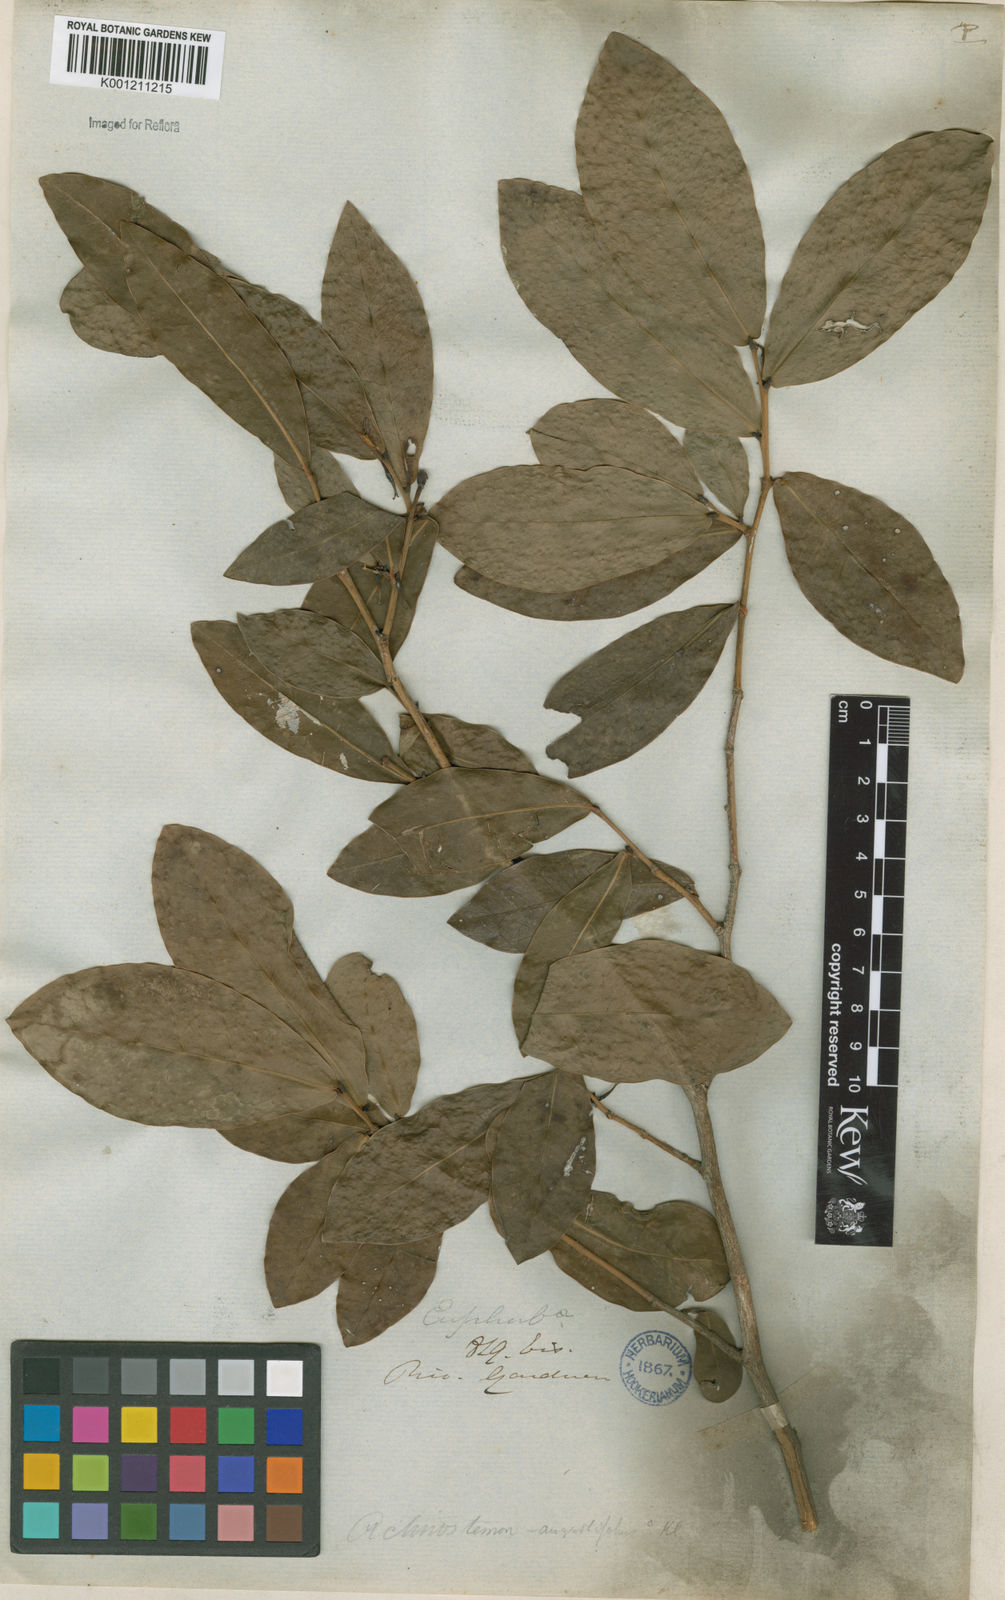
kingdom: Plantae
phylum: Tracheophyta
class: Magnoliopsida
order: Malpighiales
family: Euphorbiaceae
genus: Actinostemon
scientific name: Actinostemon
